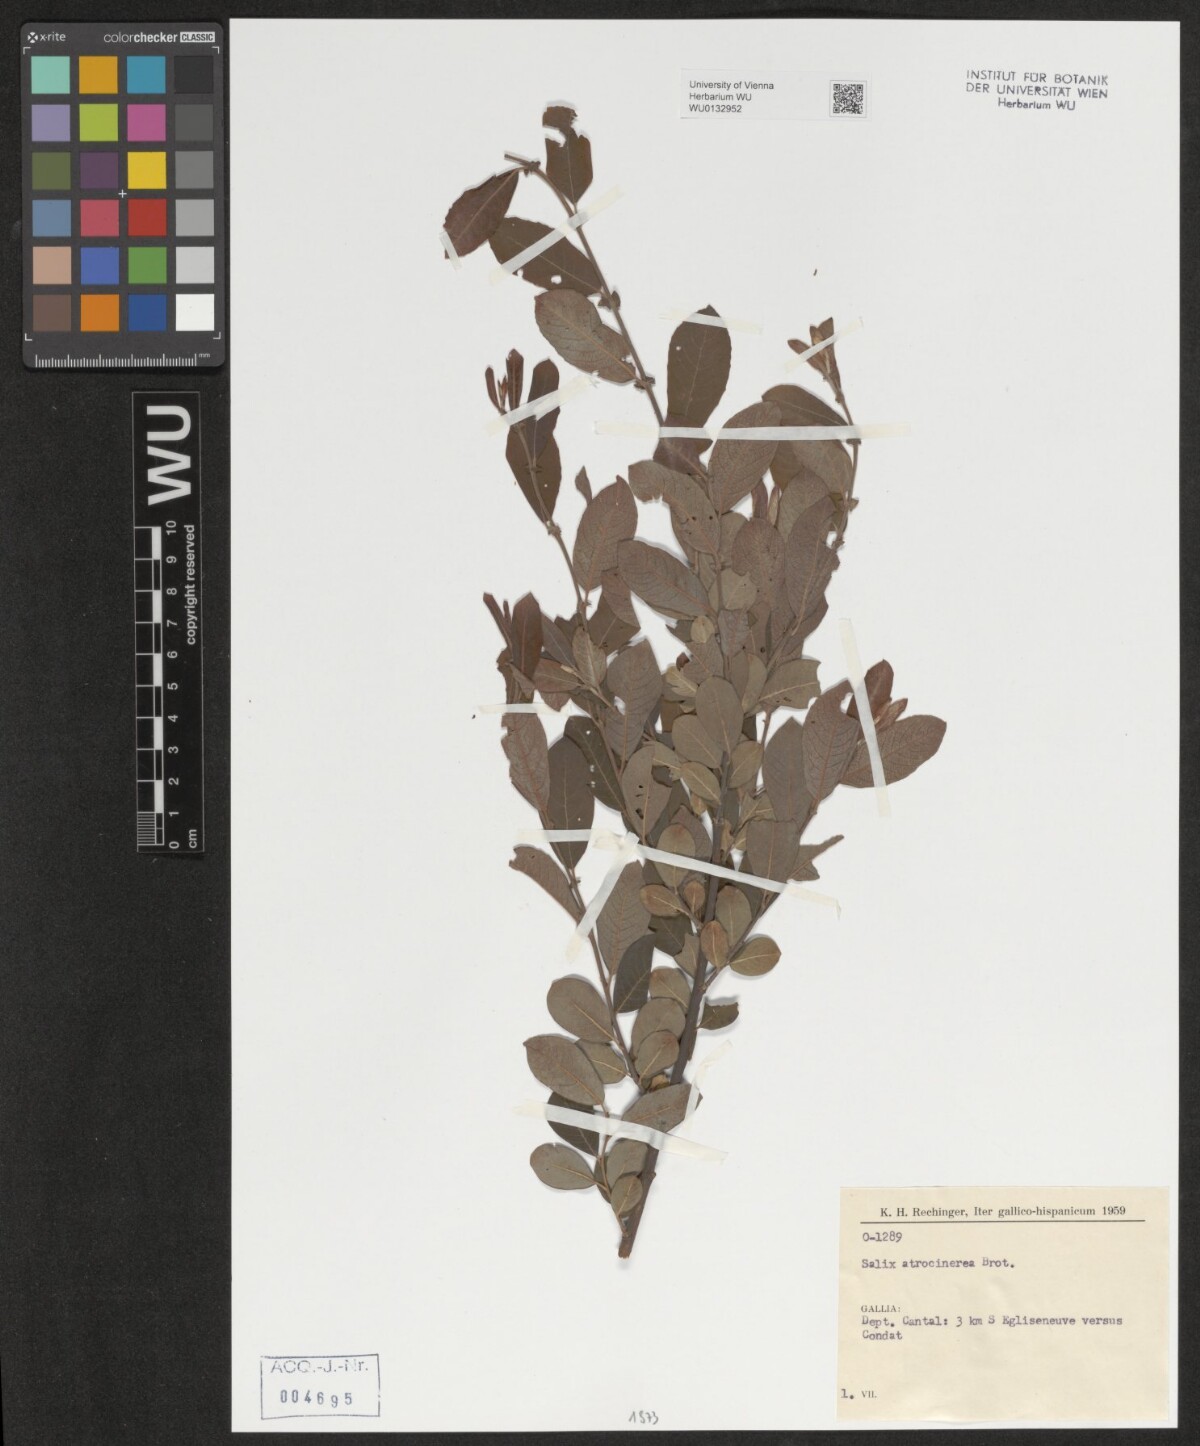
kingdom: Plantae
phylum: Tracheophyta
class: Magnoliopsida
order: Malpighiales
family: Salicaceae
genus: Salix
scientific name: Salix atrocinerea
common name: Rusty willow
